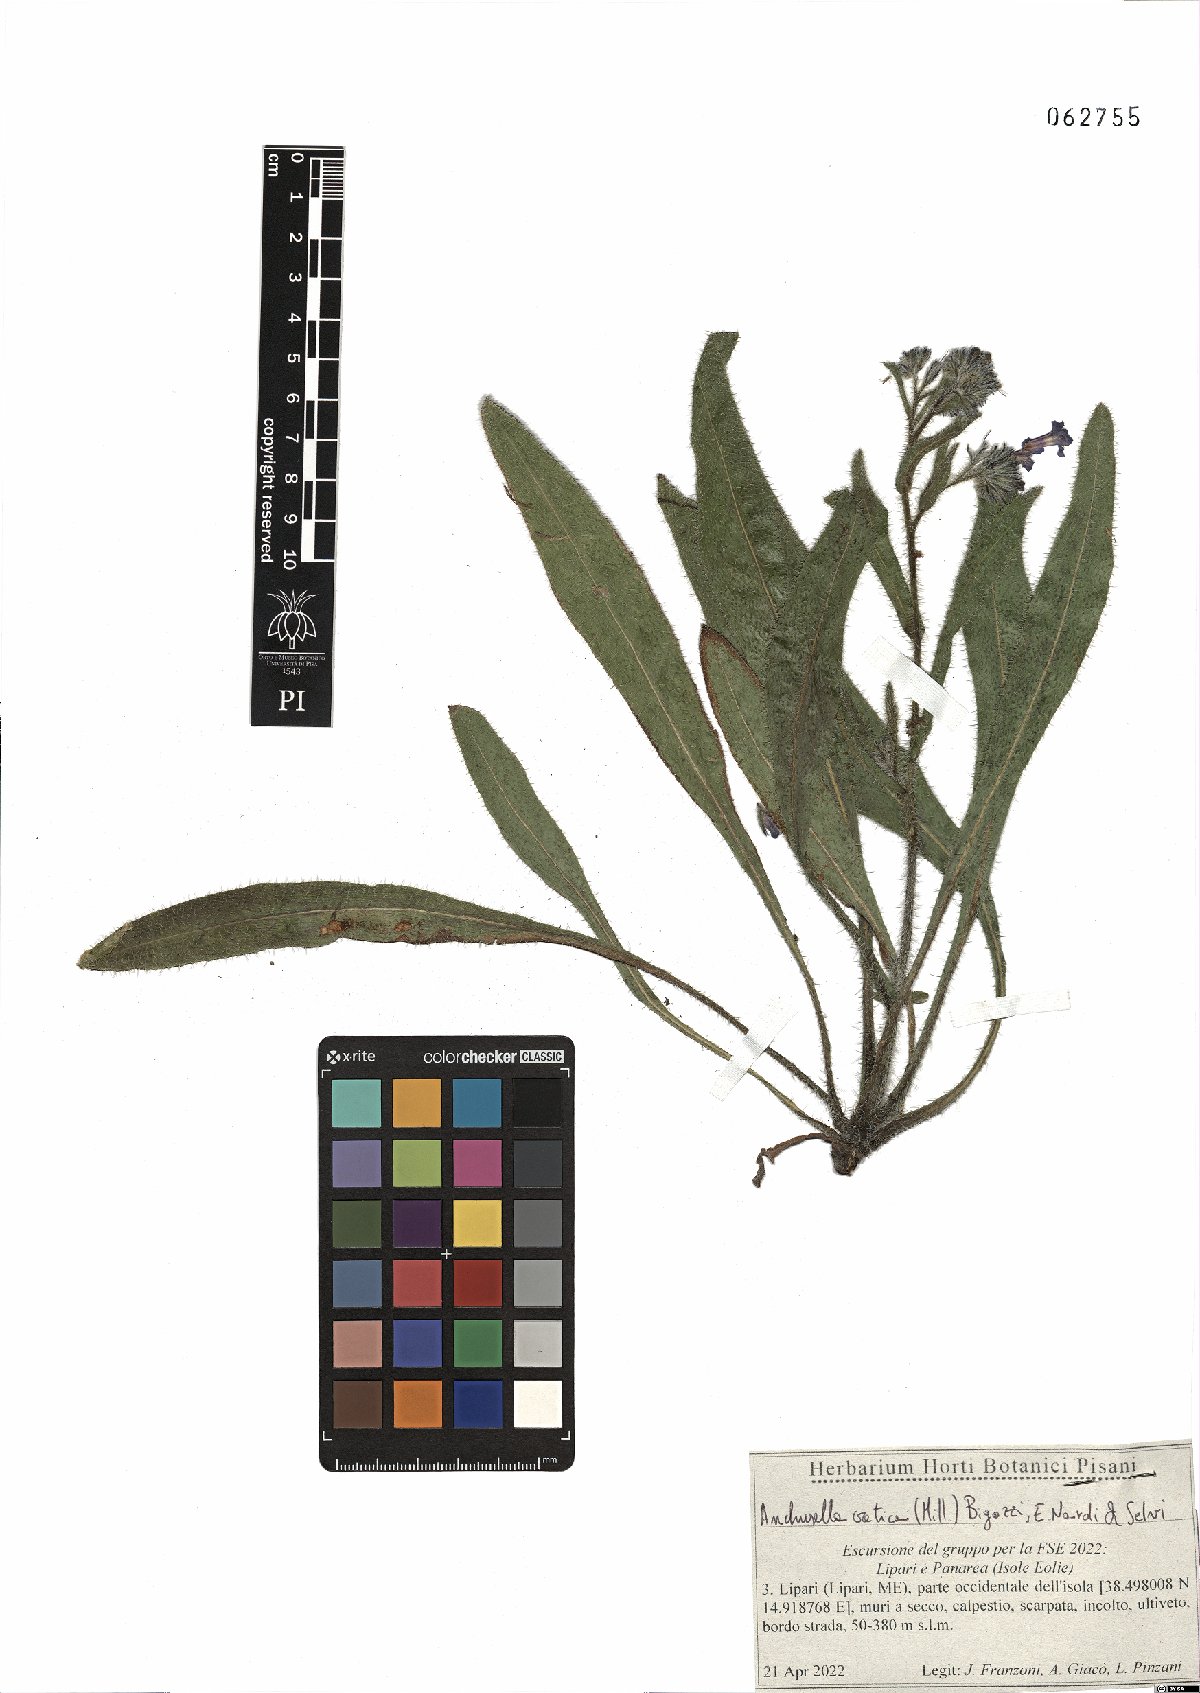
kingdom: Plantae
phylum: Tracheophyta
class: Magnoliopsida
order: Boraginales
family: Boraginaceae
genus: Anchusella
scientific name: Anchusella cretica
